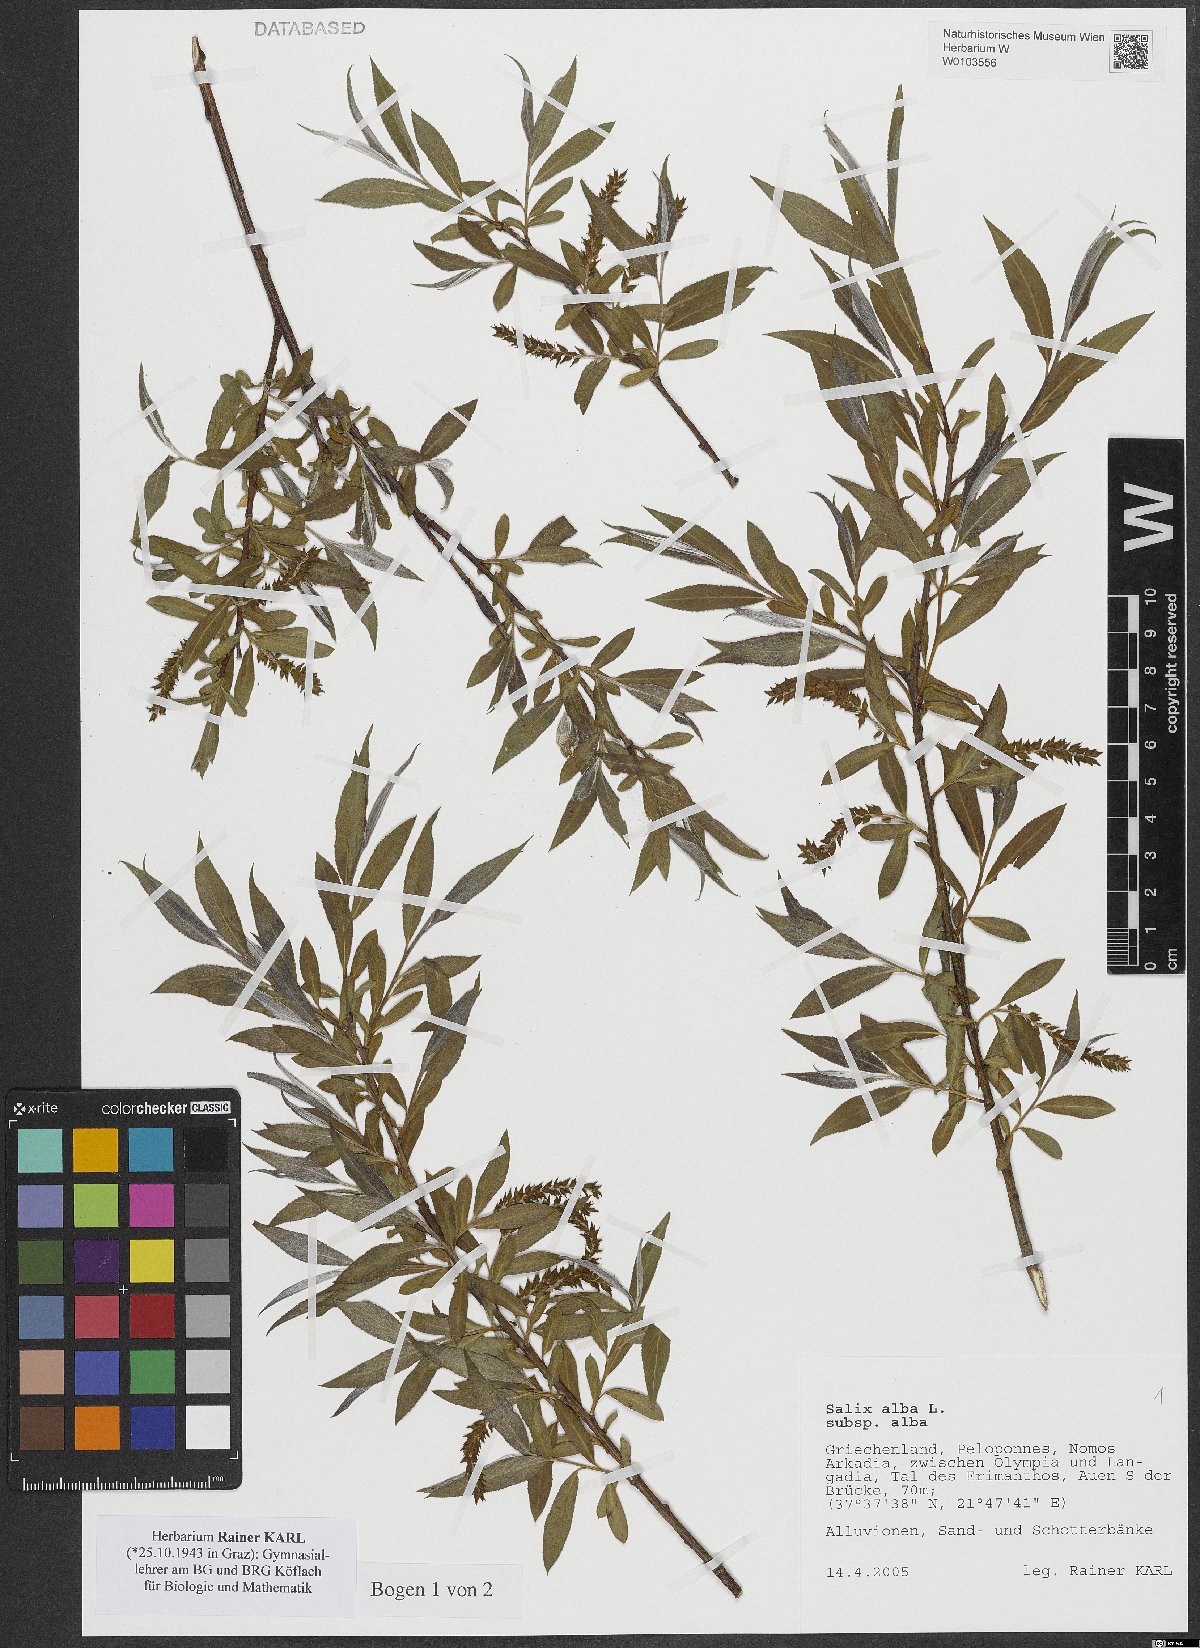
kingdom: Plantae
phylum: Tracheophyta
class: Magnoliopsida
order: Malpighiales
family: Salicaceae
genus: Salix
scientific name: Salix alba
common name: White willow
